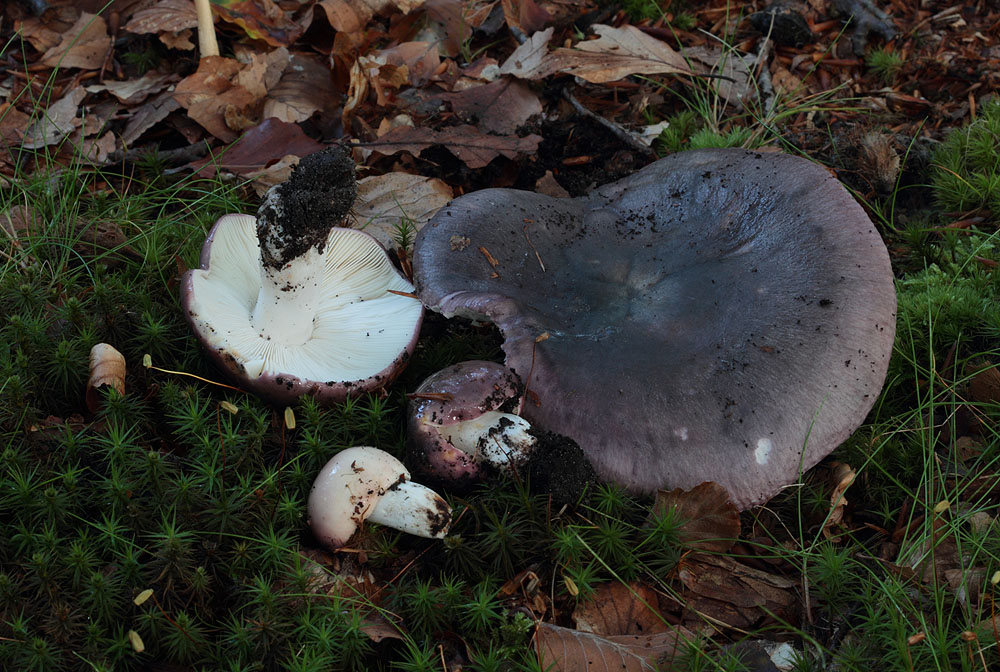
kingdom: Fungi
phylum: Basidiomycota
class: Agaricomycetes
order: Russulales
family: Russulaceae
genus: Russula
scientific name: Russula cyanoxantha
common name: broget skørhat
